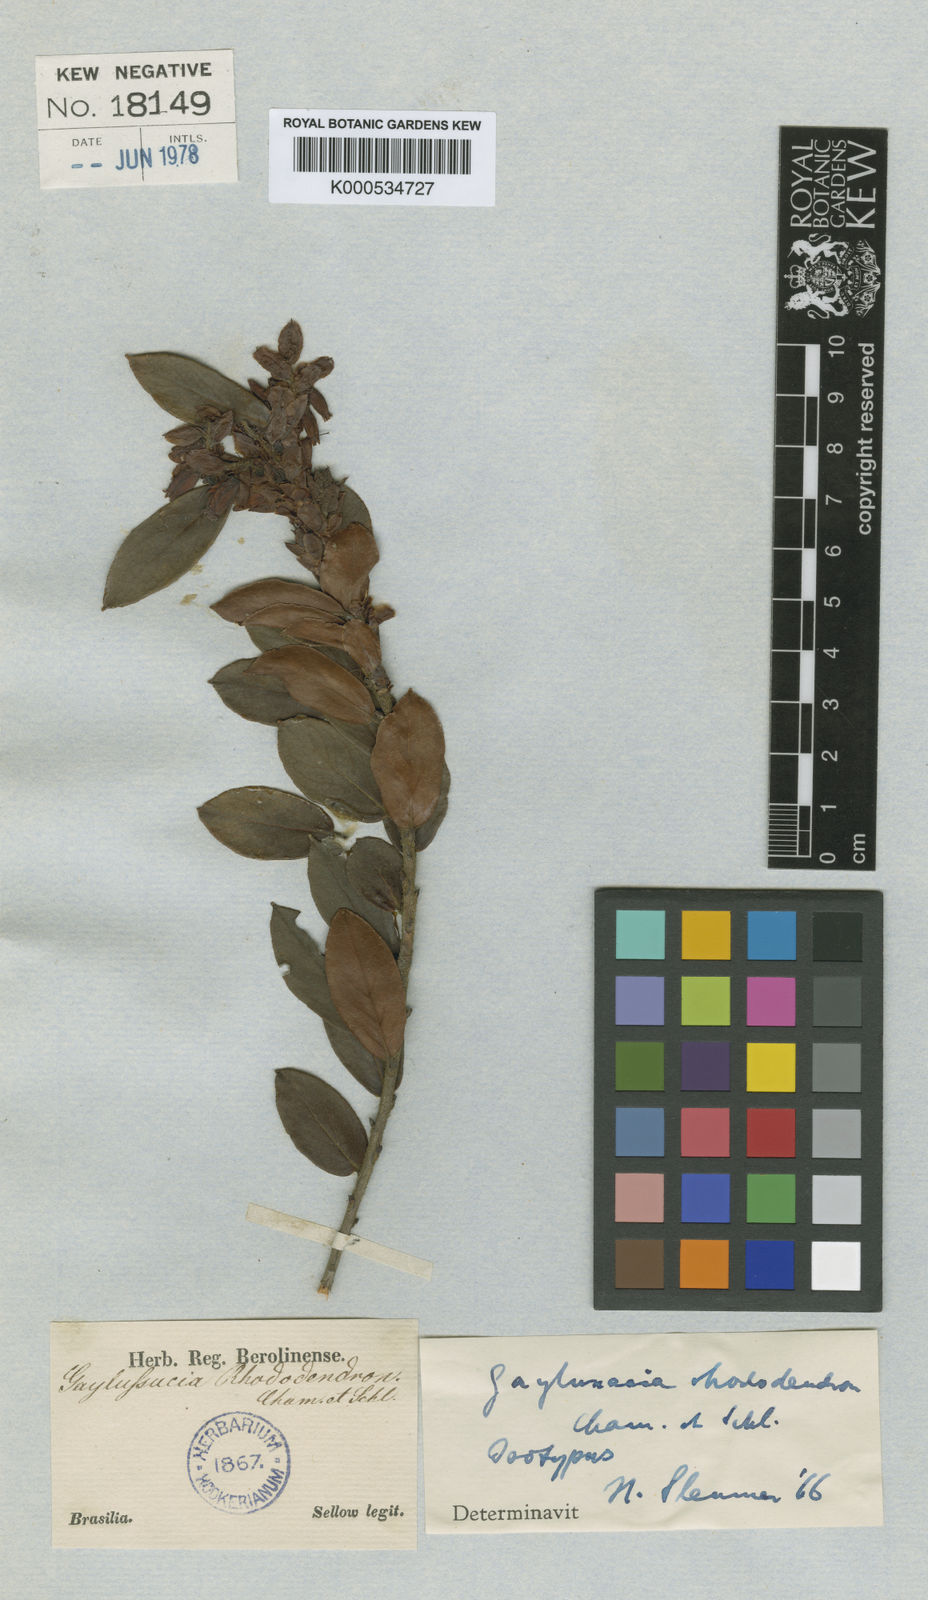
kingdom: Plantae
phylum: Tracheophyta
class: Magnoliopsida
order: Ericales
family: Ericaceae
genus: Gaylussacia
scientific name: Gaylussacia rhododendron
